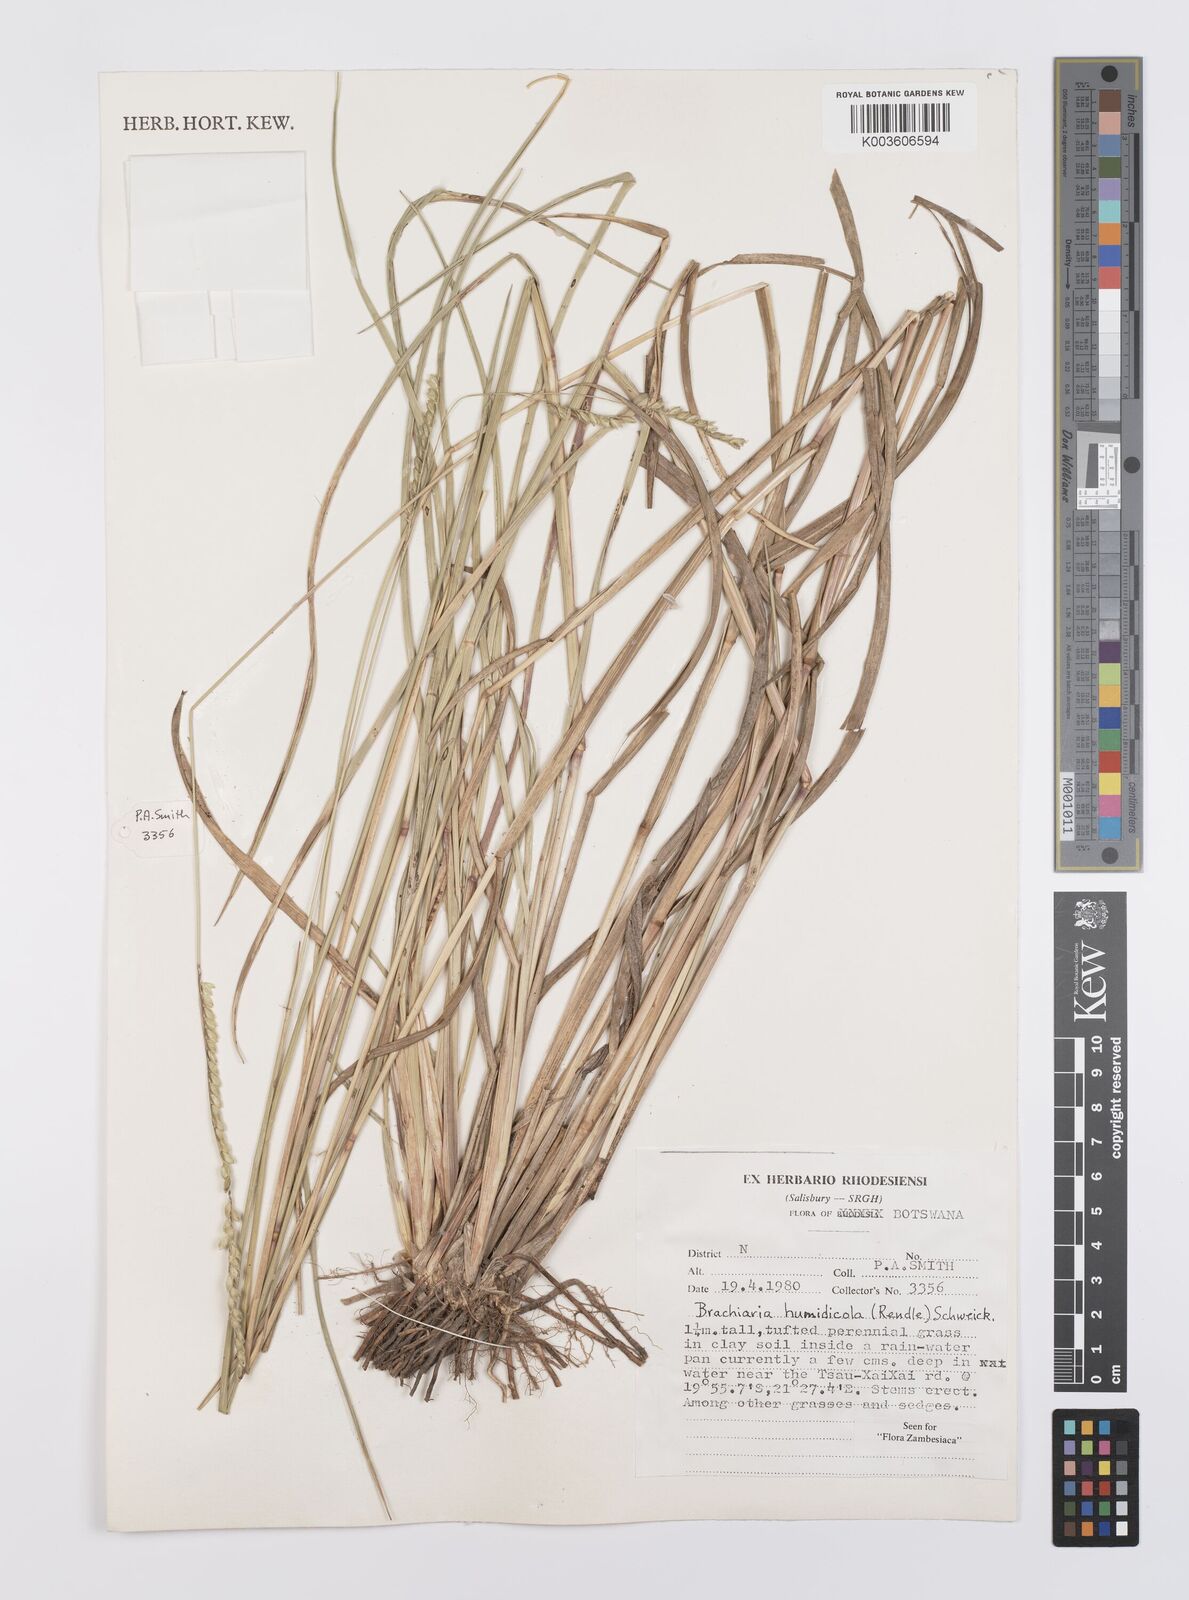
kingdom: Plantae
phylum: Tracheophyta
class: Liliopsida
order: Poales
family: Poaceae
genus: Urochloa
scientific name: Urochloa dictyoneura
